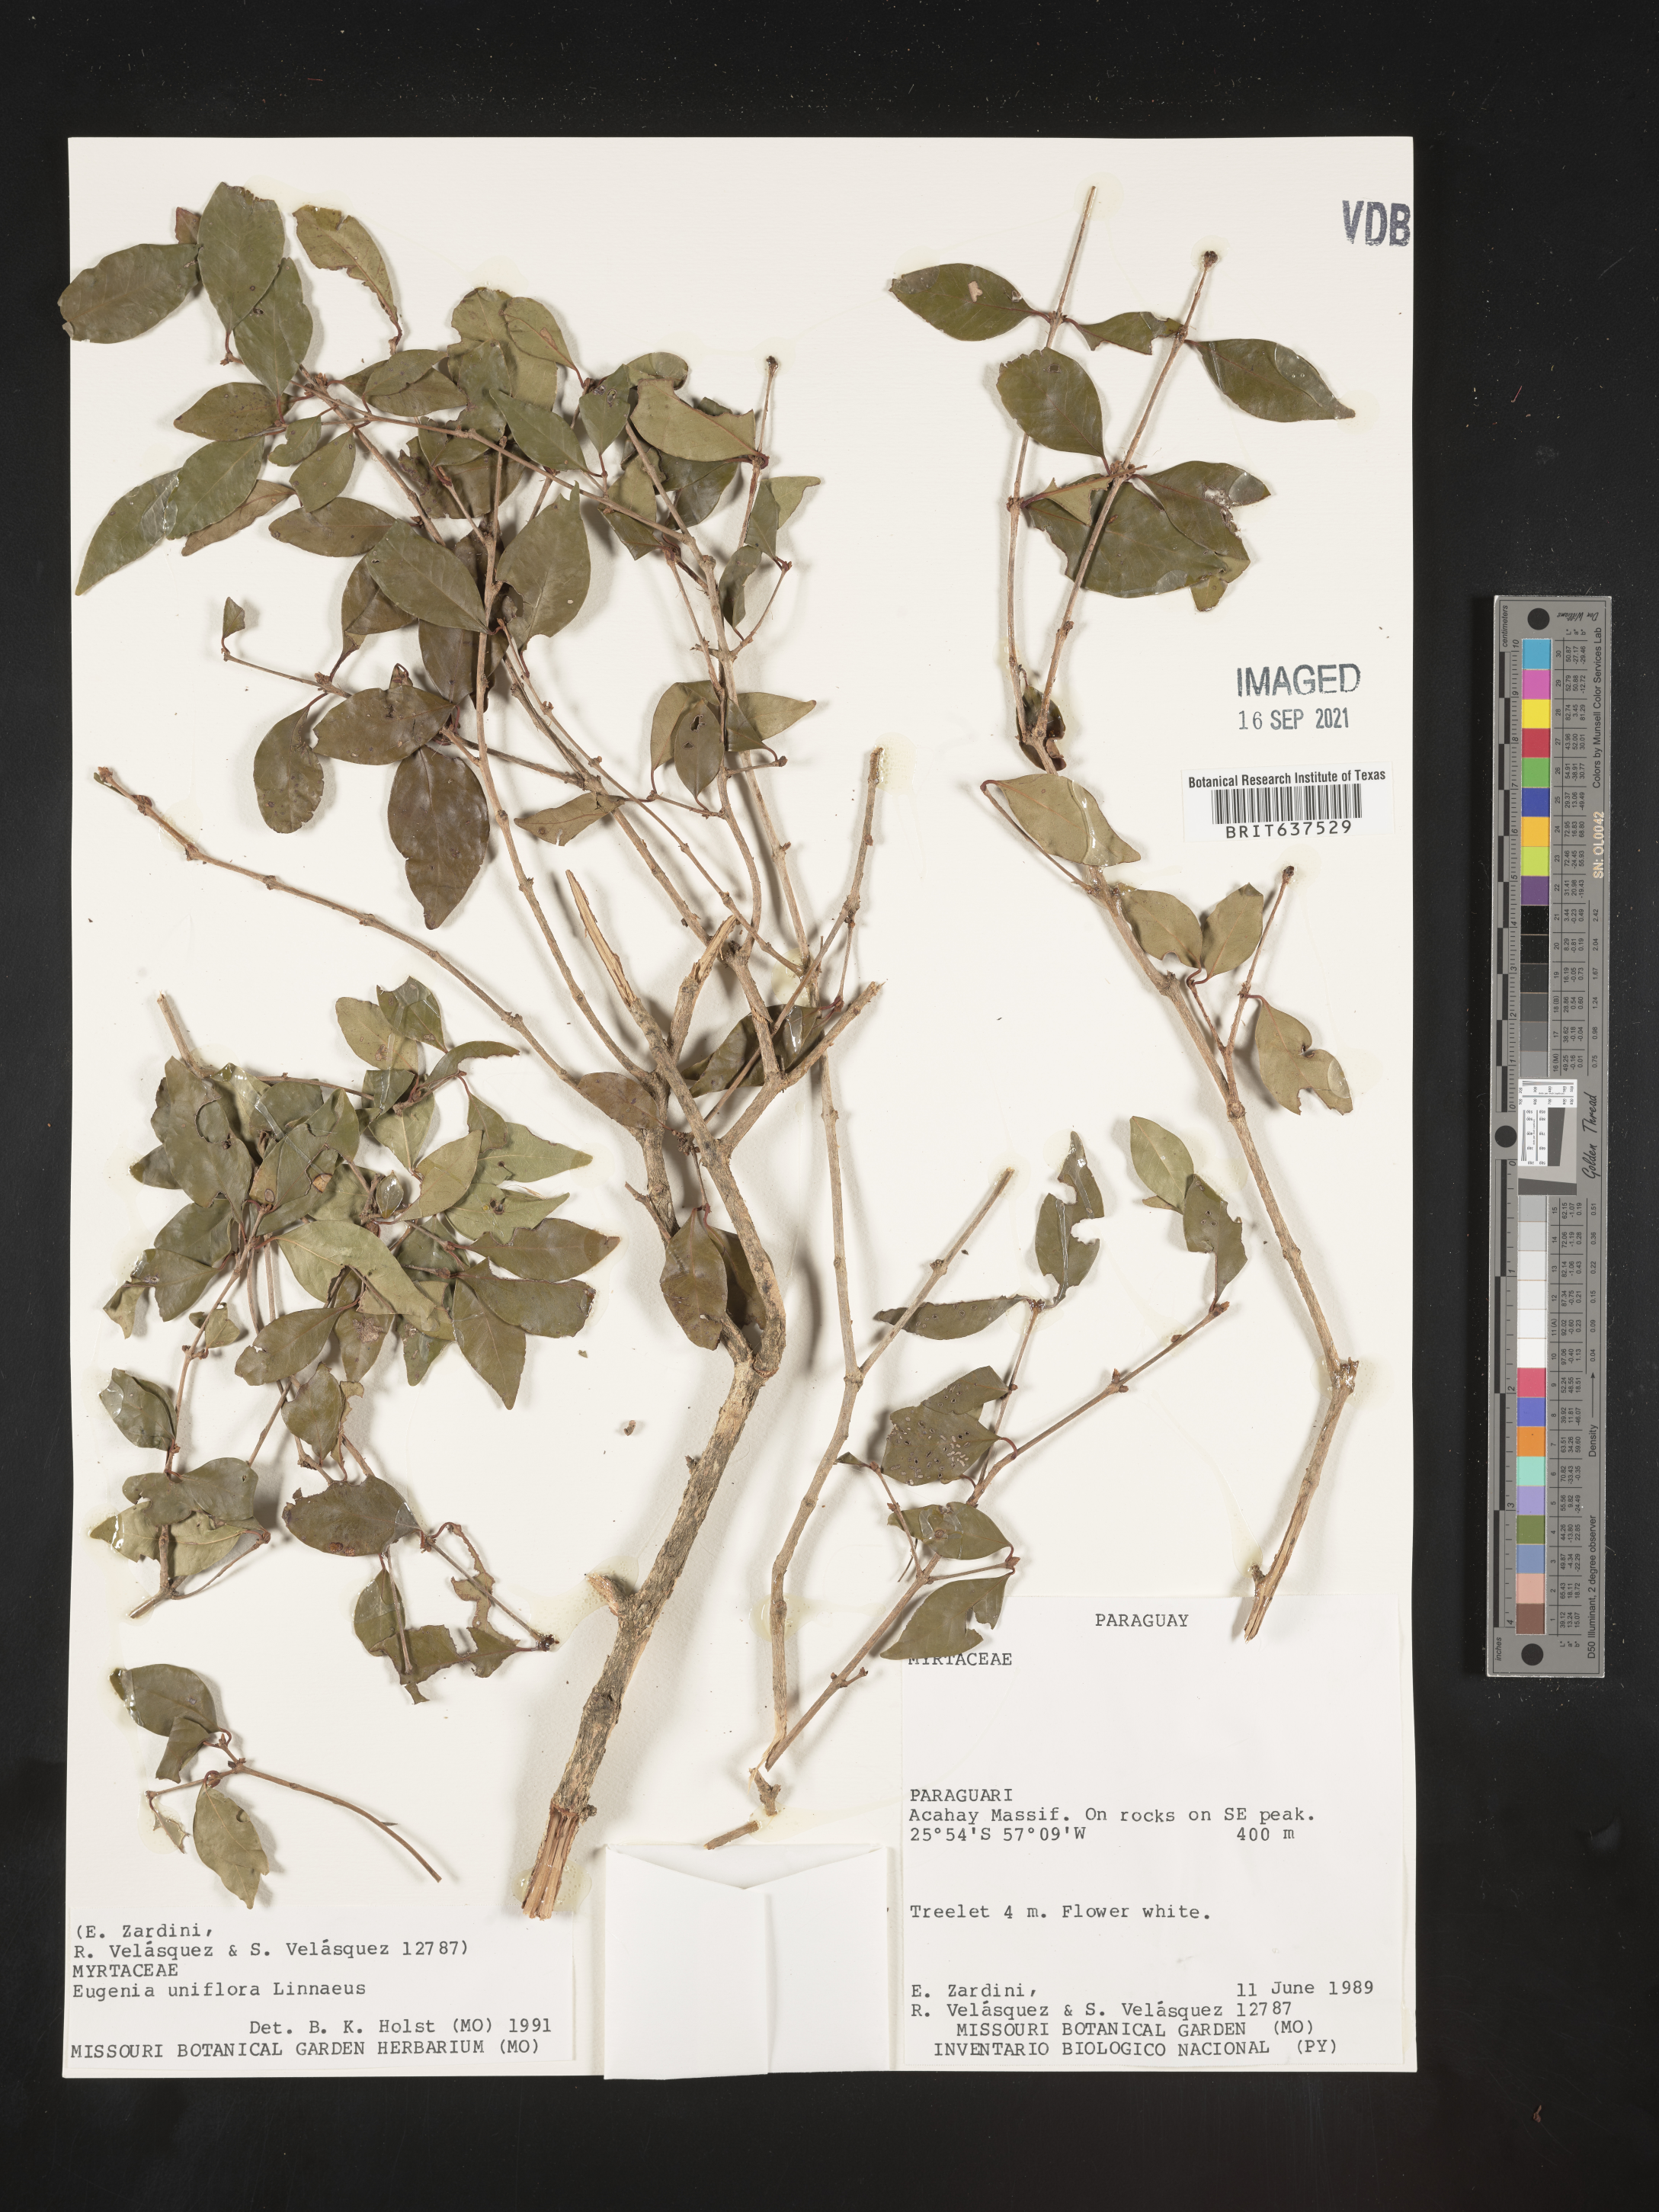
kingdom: Plantae
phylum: Tracheophyta
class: Magnoliopsida
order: Myrtales
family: Myrtaceae
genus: Eugenia
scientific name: Eugenia
